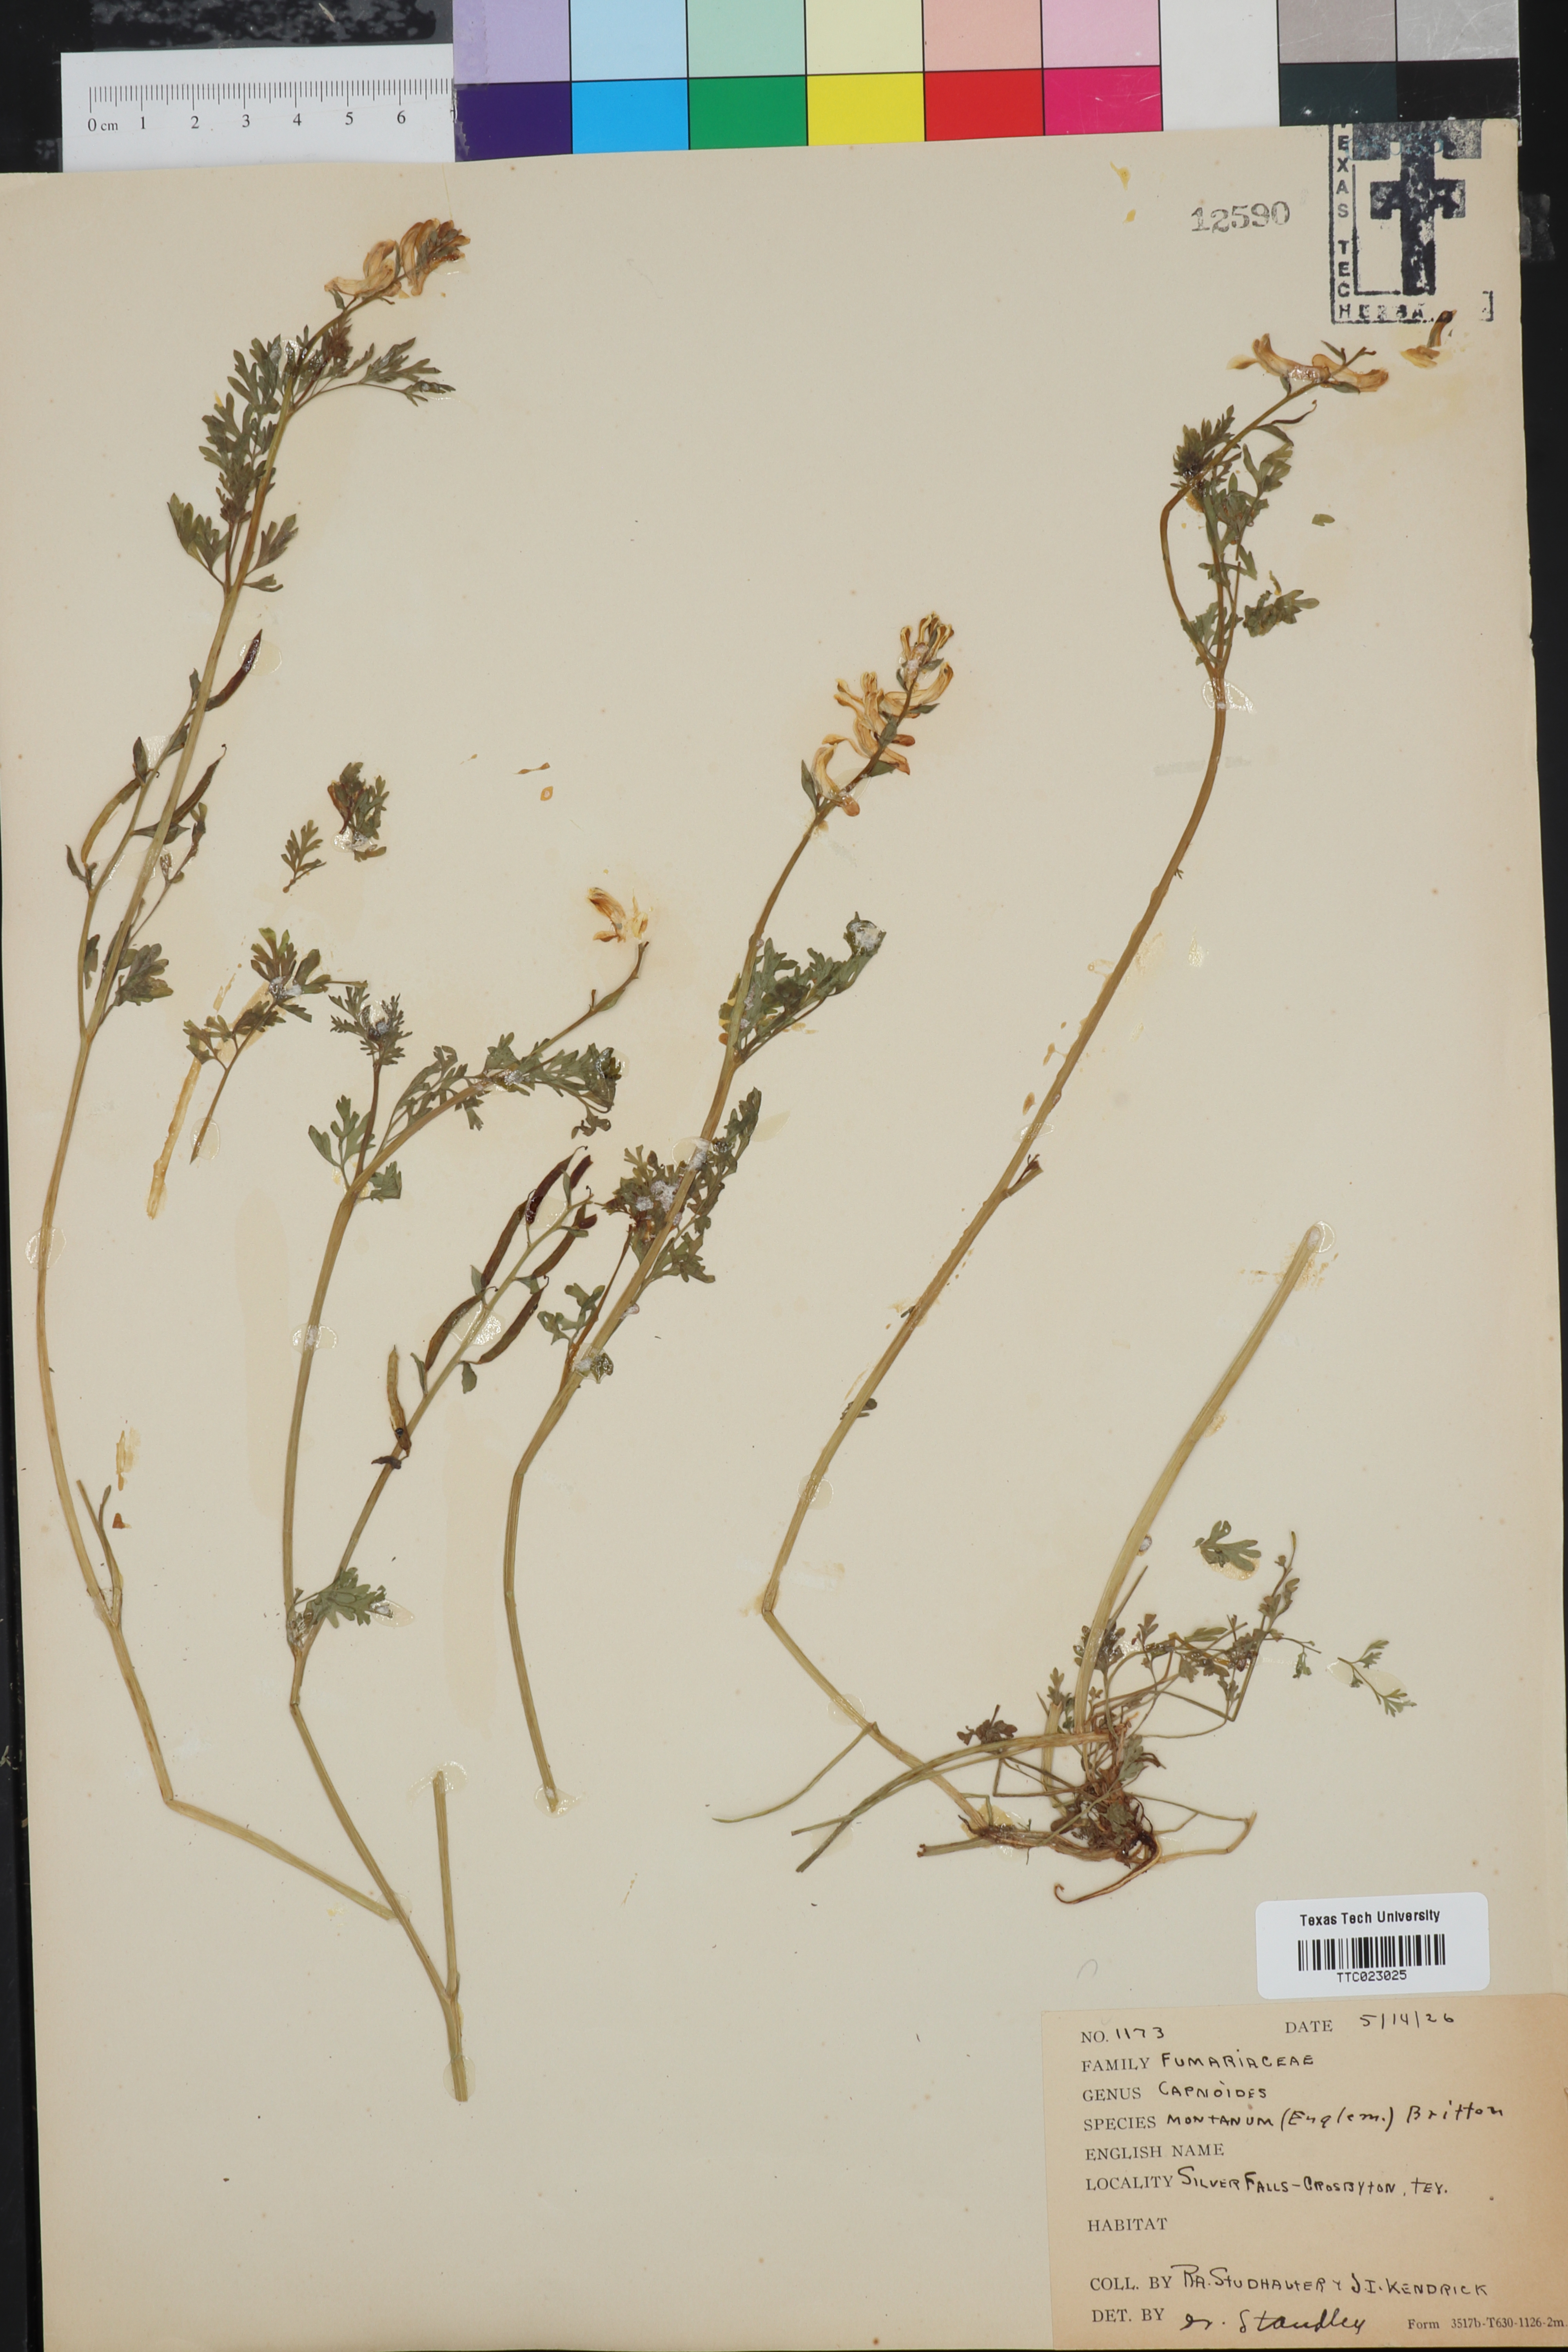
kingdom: Plantae
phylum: Tracheophyta
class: Magnoliopsida
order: Ranunculales
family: Papaveraceae
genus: Corydalis
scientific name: Corydalis curvisiliqua
